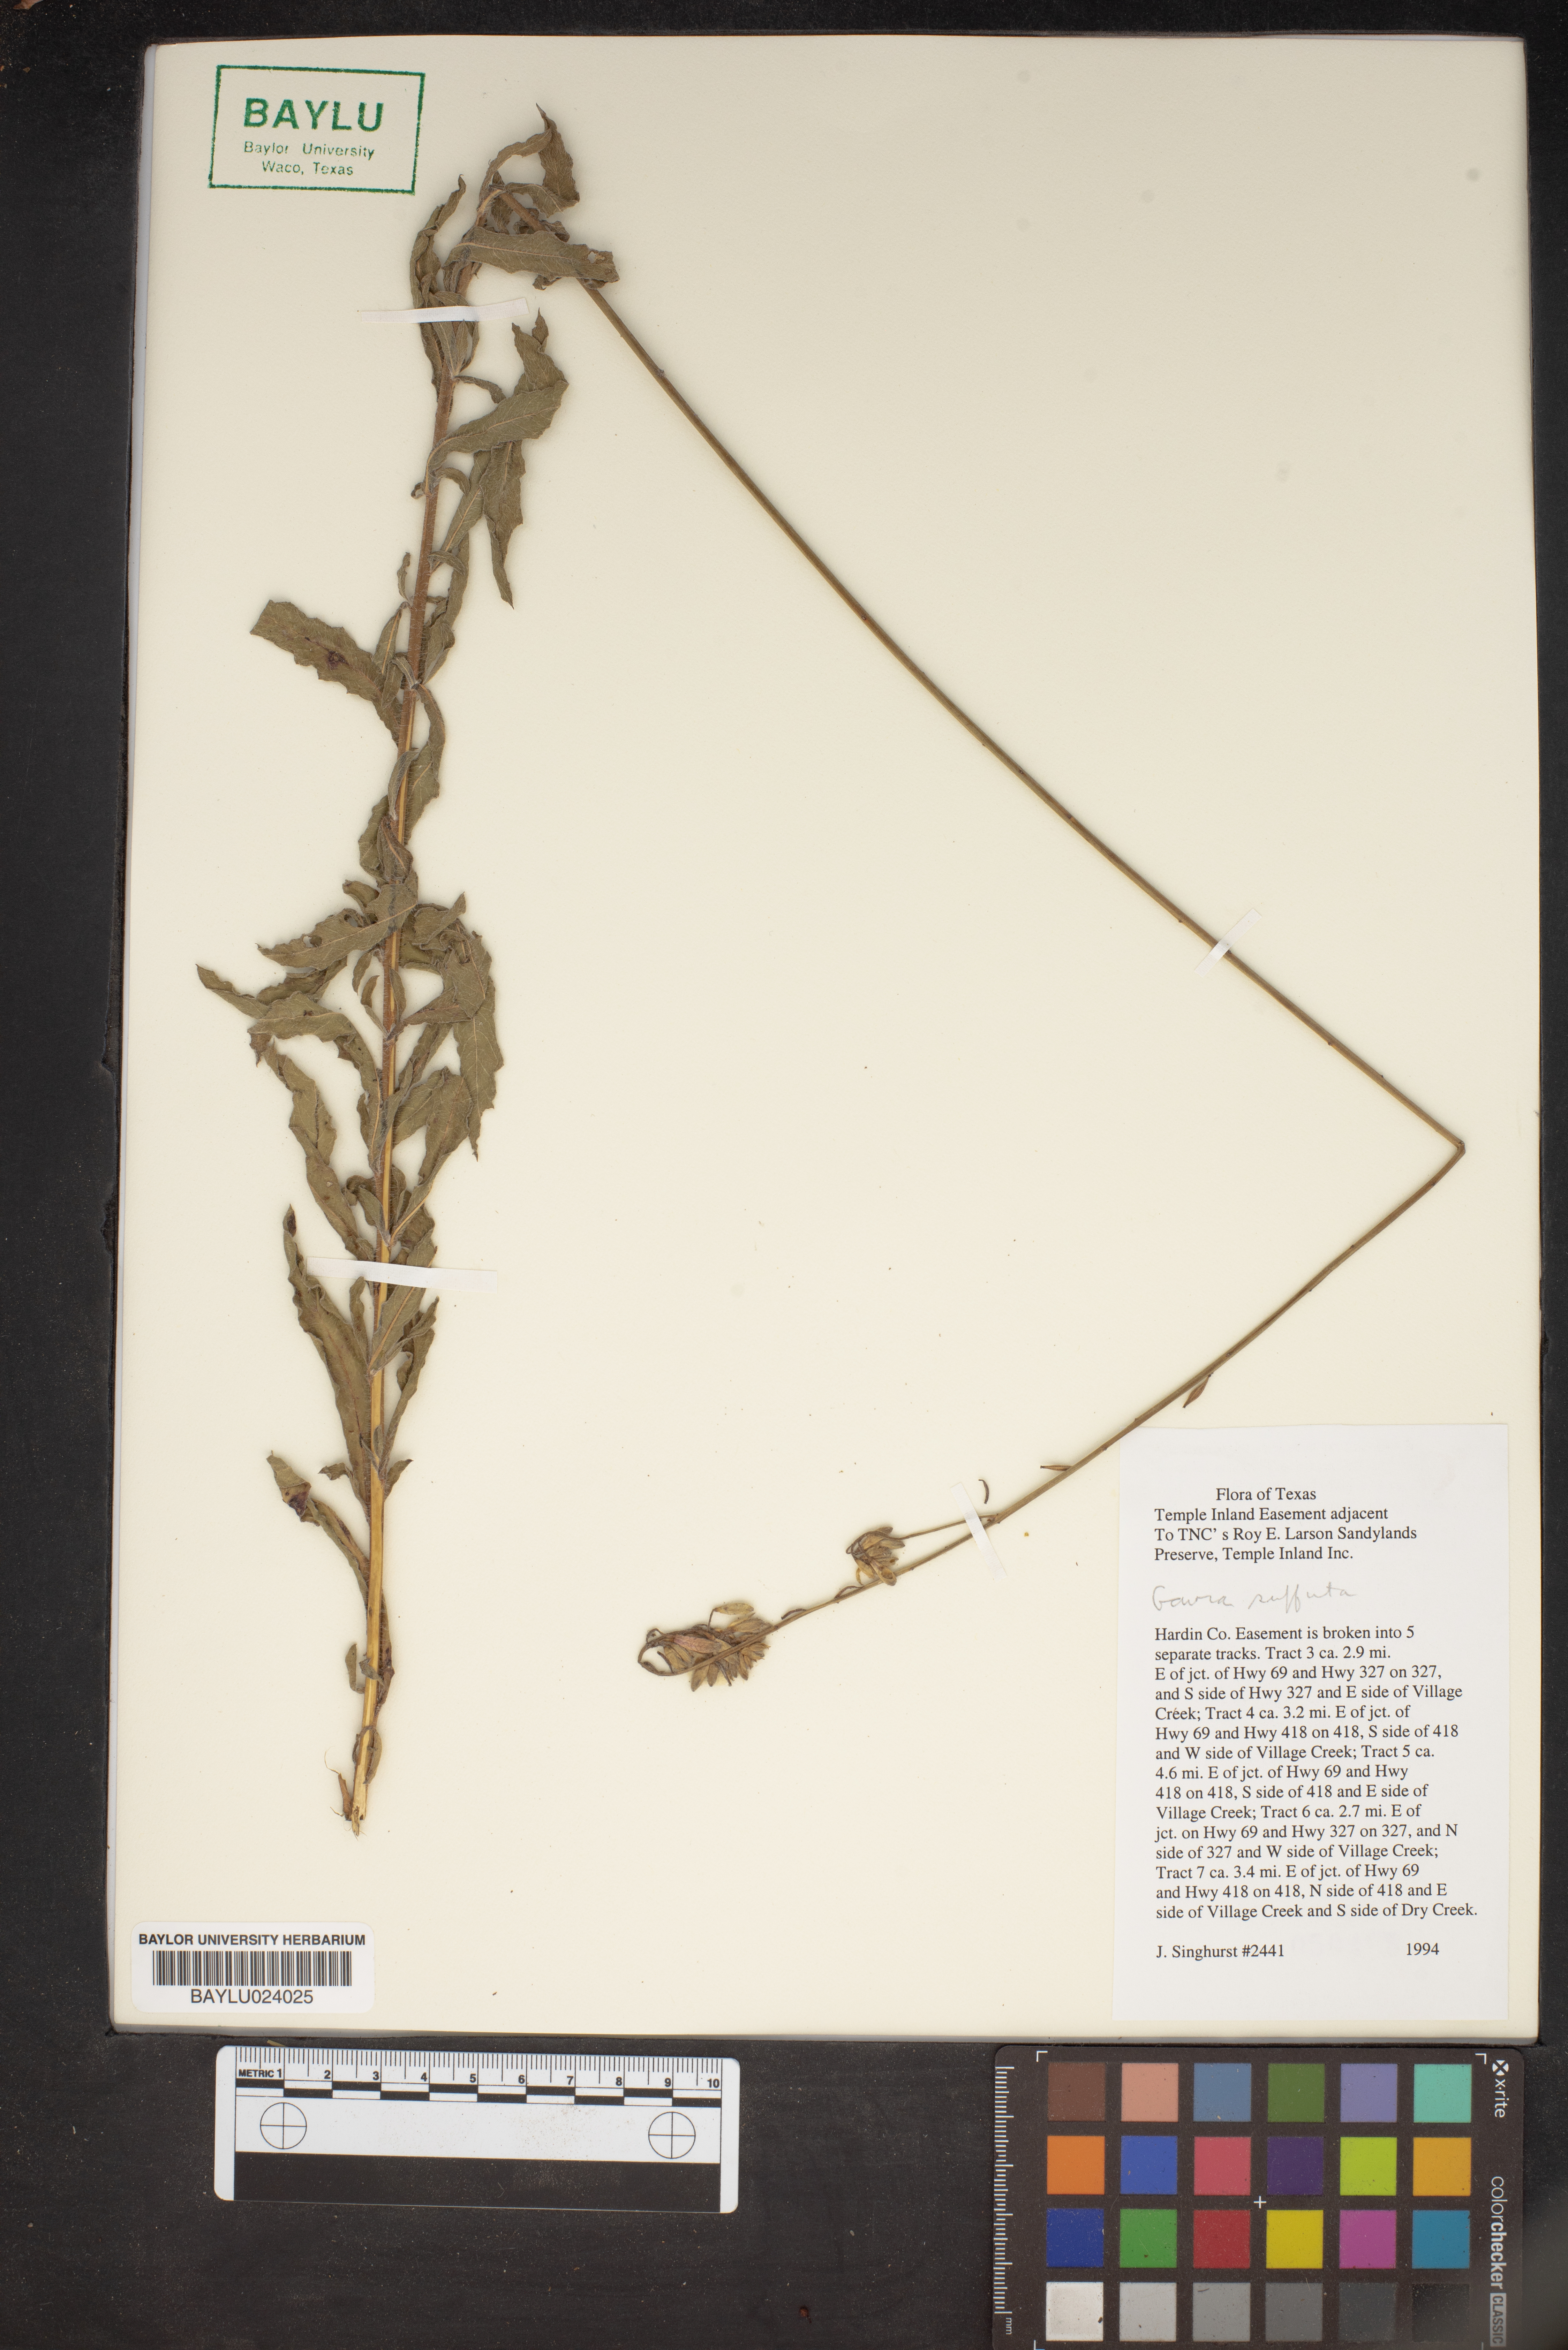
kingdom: Plantae
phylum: Tracheophyta
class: Magnoliopsida
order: Myrtales
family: Onagraceae
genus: Oenothera
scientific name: Oenothera Gaura suffulta
